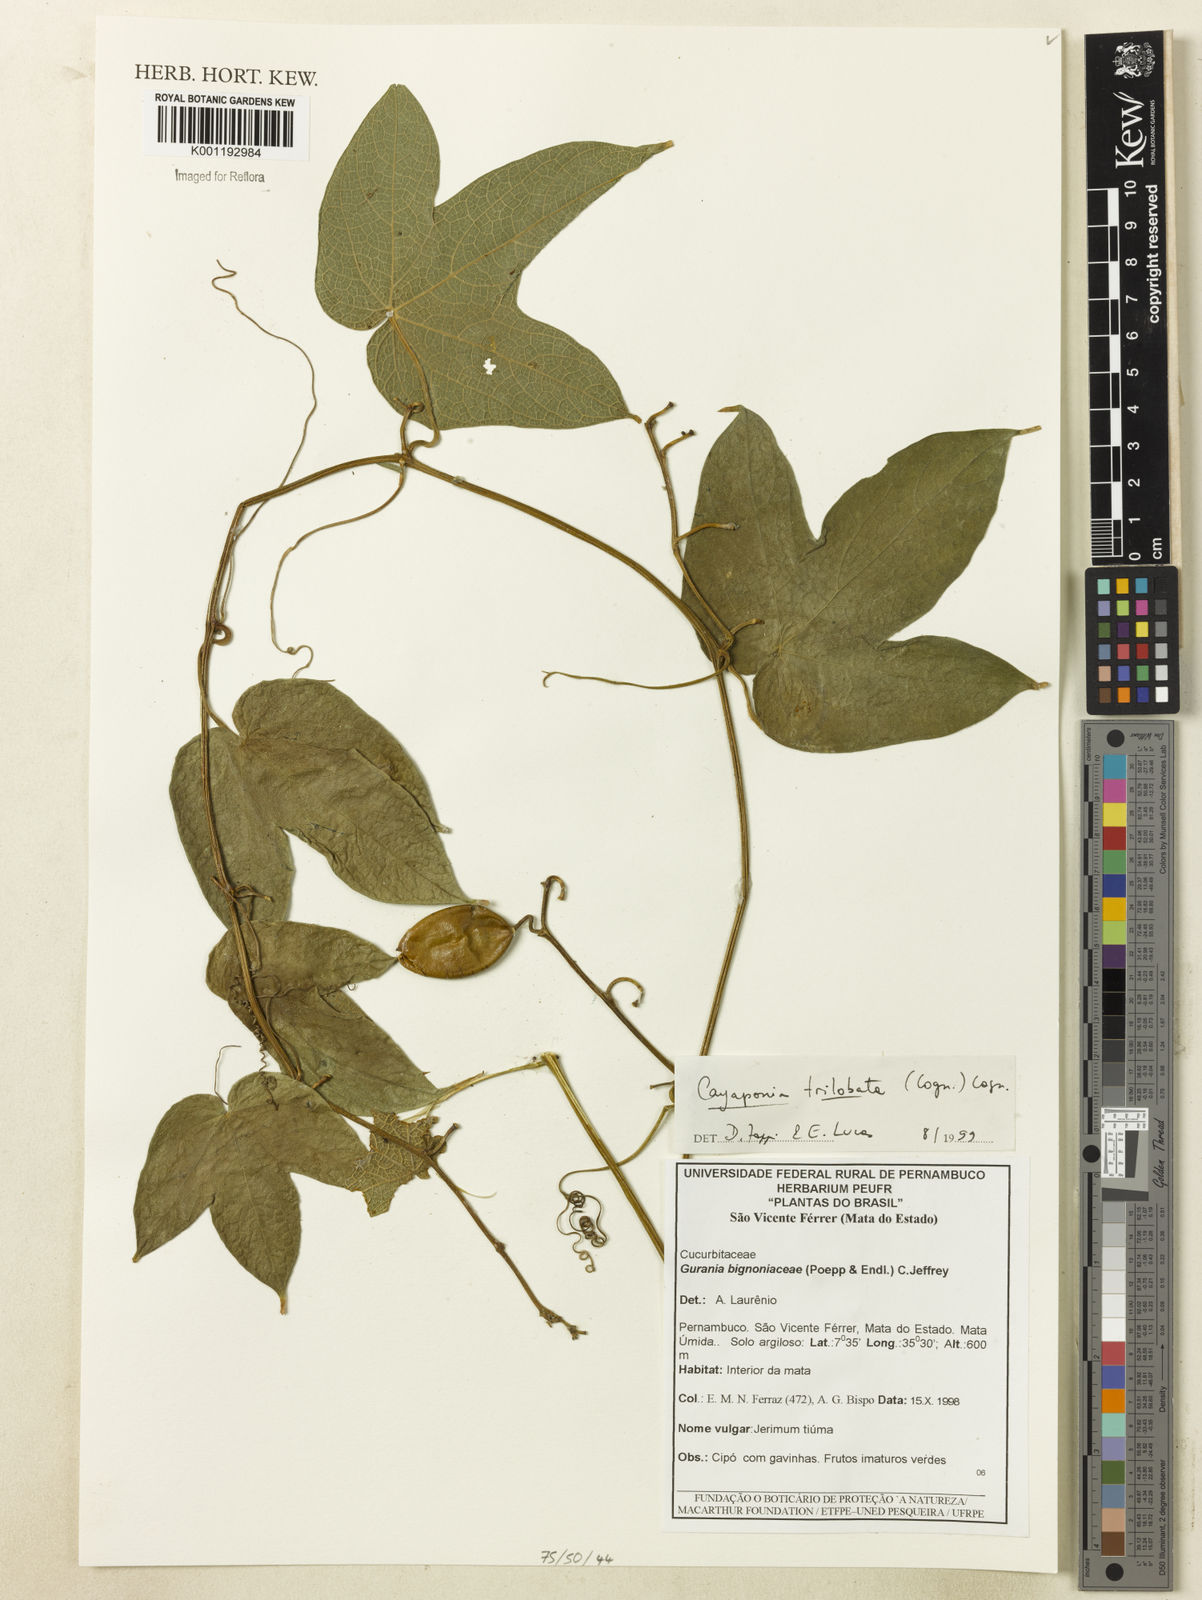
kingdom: Plantae
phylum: Tracheophyta
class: Magnoliopsida
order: Cucurbitales
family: Cucurbitaceae
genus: Cayaponia
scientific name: Cayaponia trilobata
